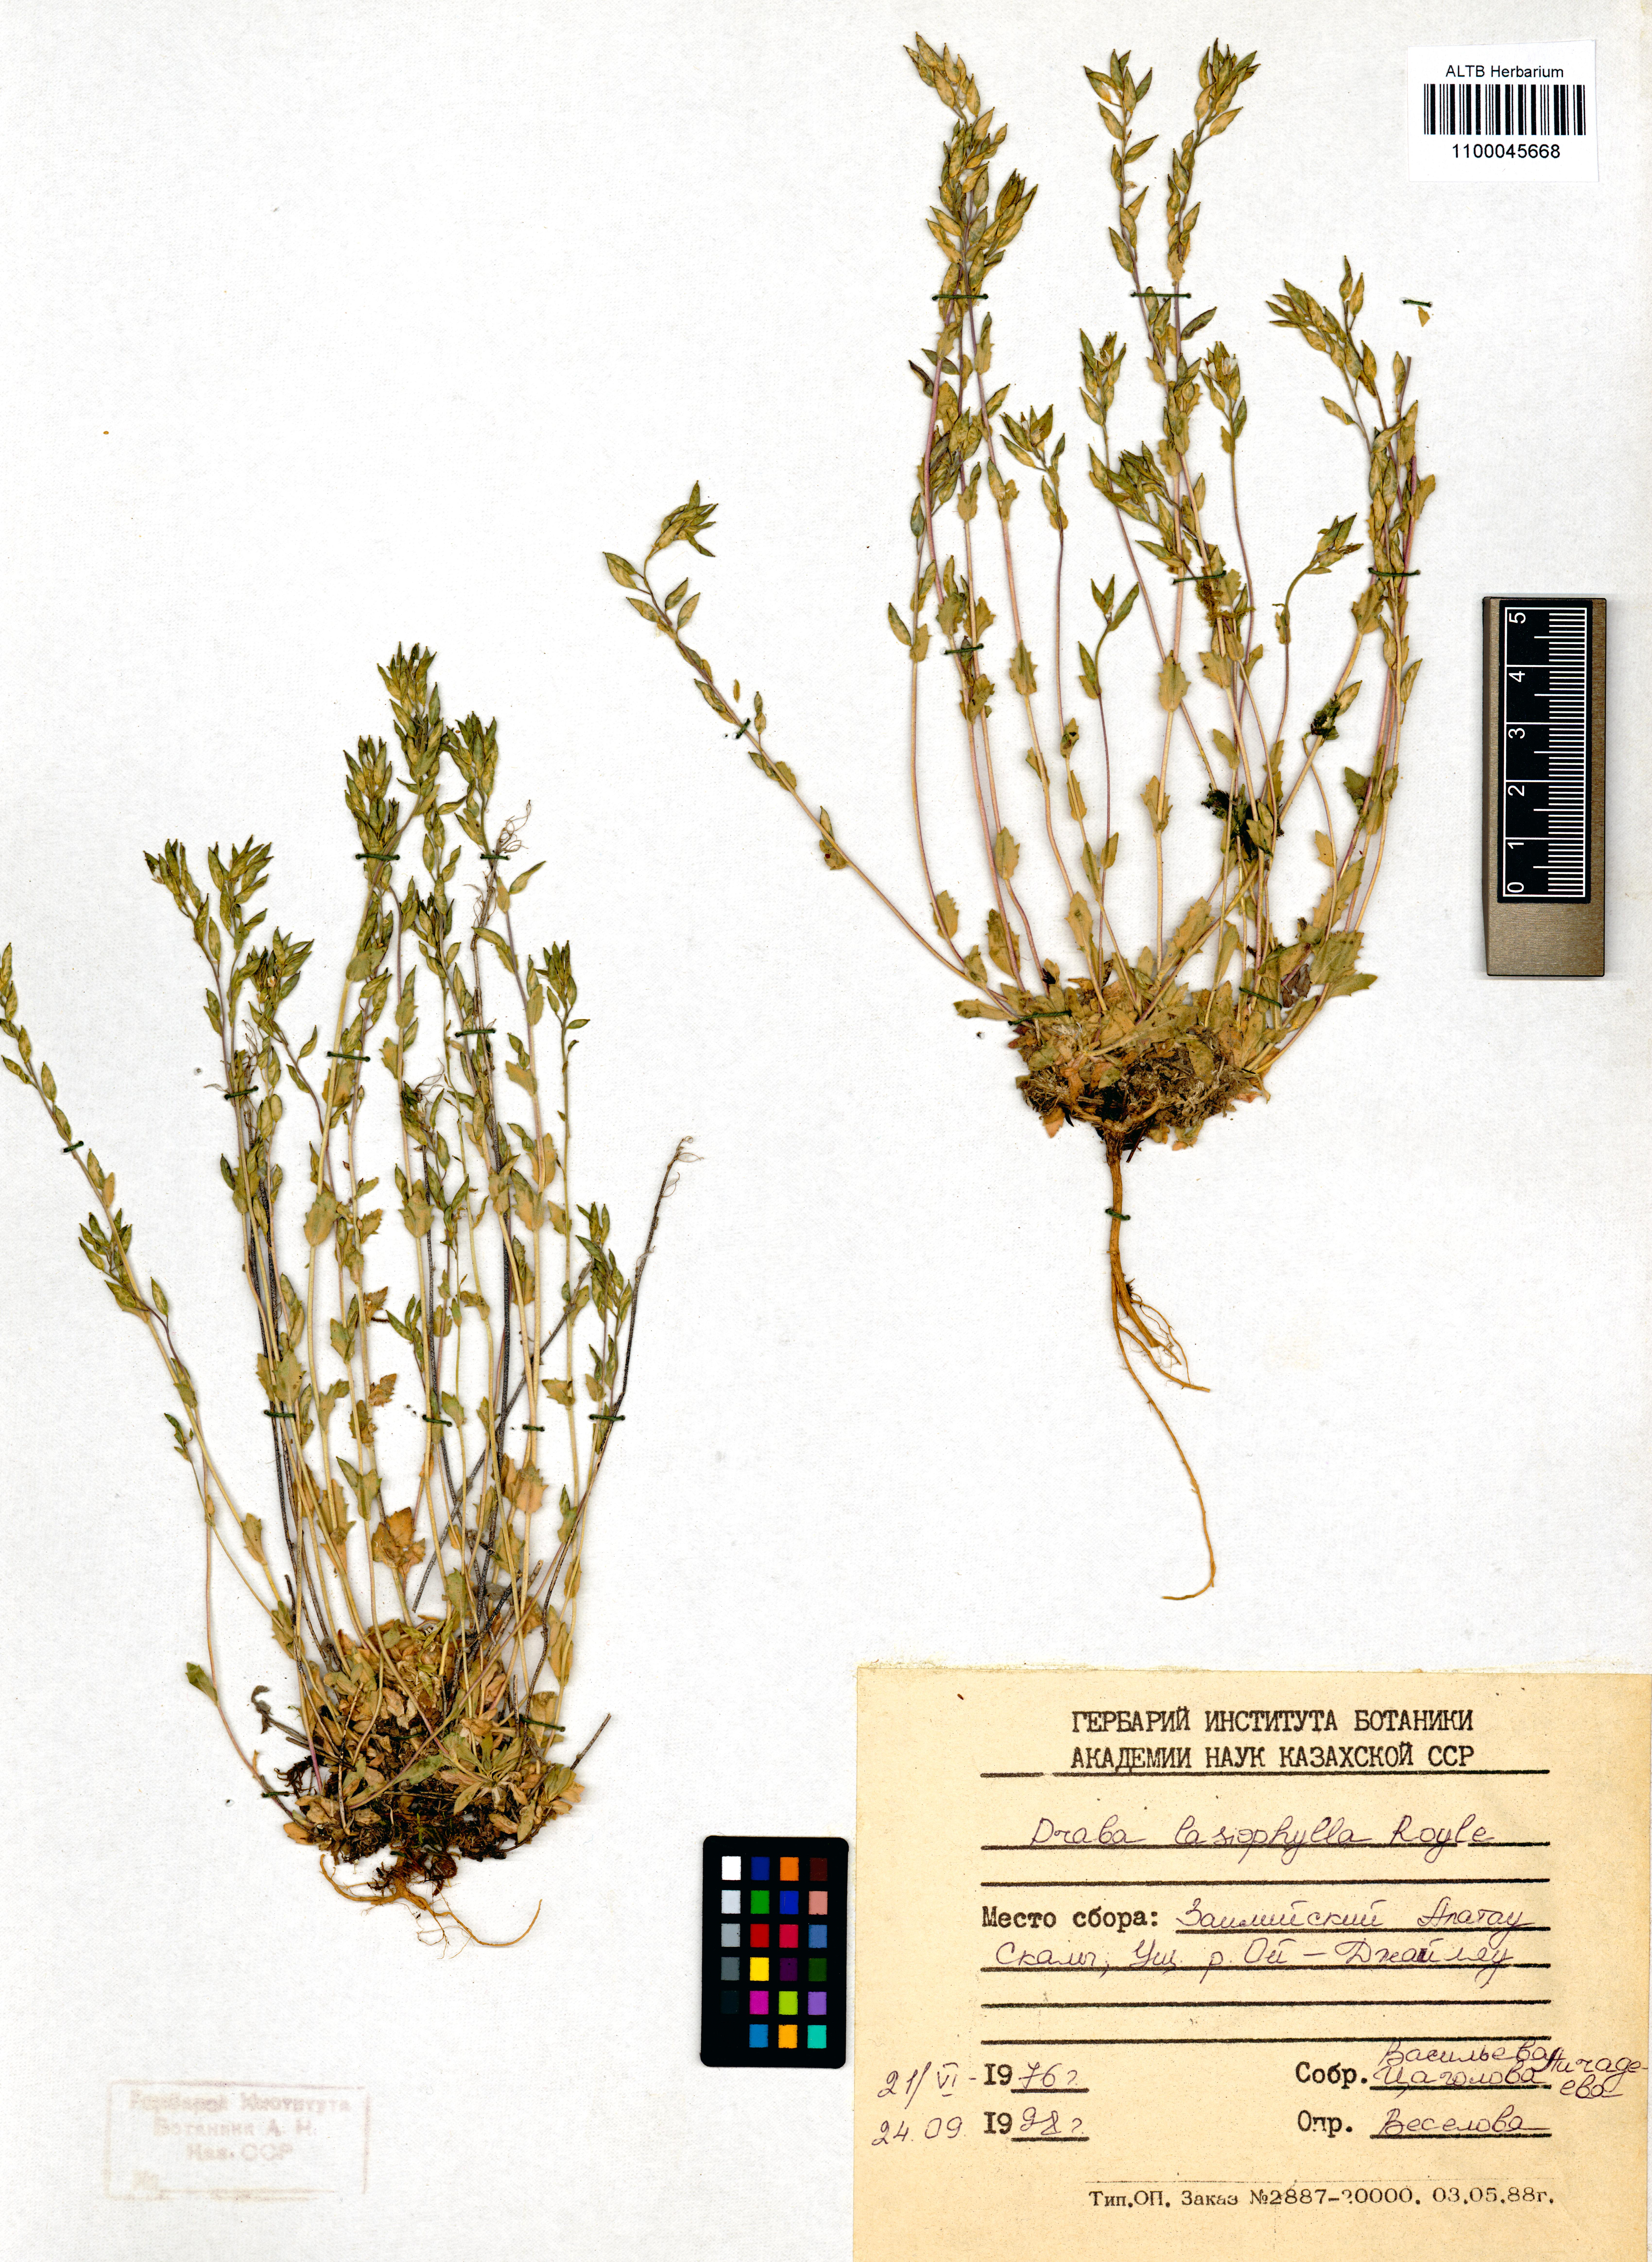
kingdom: Plantae
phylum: Tracheophyta
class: Magnoliopsida
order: Brassicales
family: Brassicaceae
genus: Draba
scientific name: Draba lasiophylla
